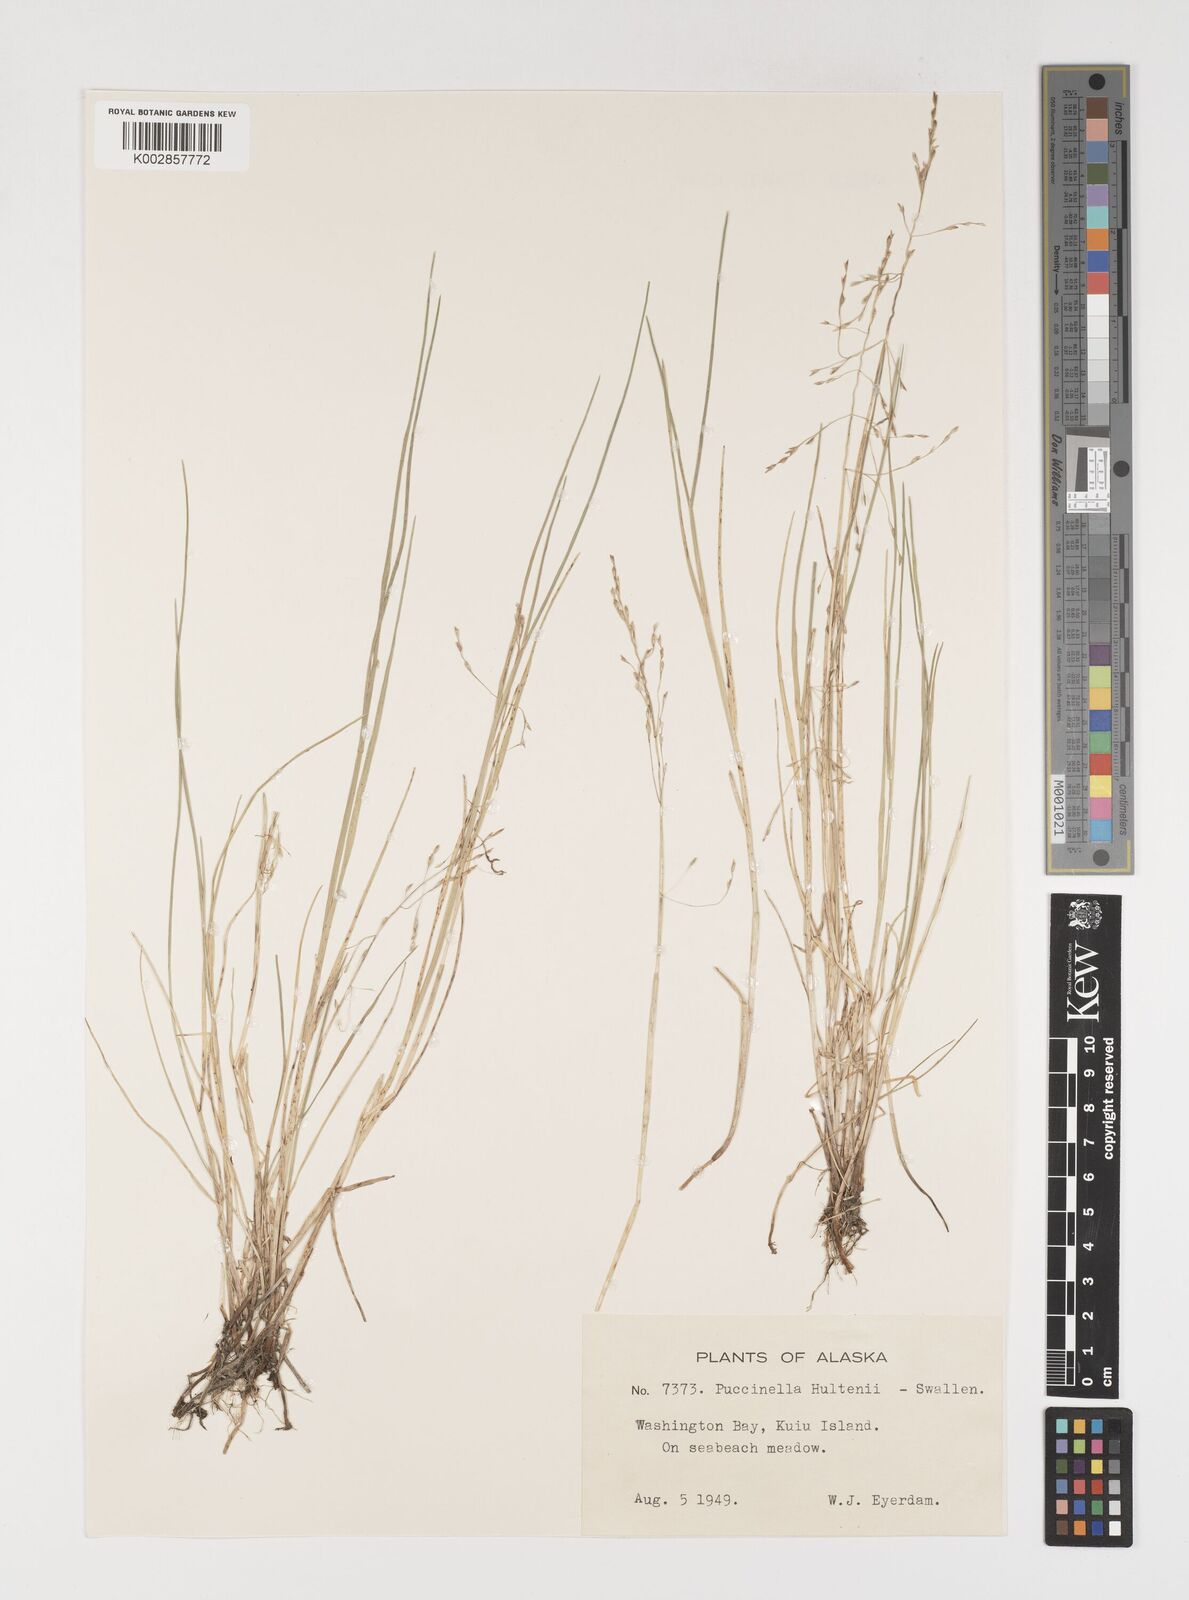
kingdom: Plantae
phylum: Tracheophyta
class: Liliopsida
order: Poales
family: Poaceae
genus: Puccinellia
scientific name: Puccinellia pumila
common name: Dwarf alkaligrass
